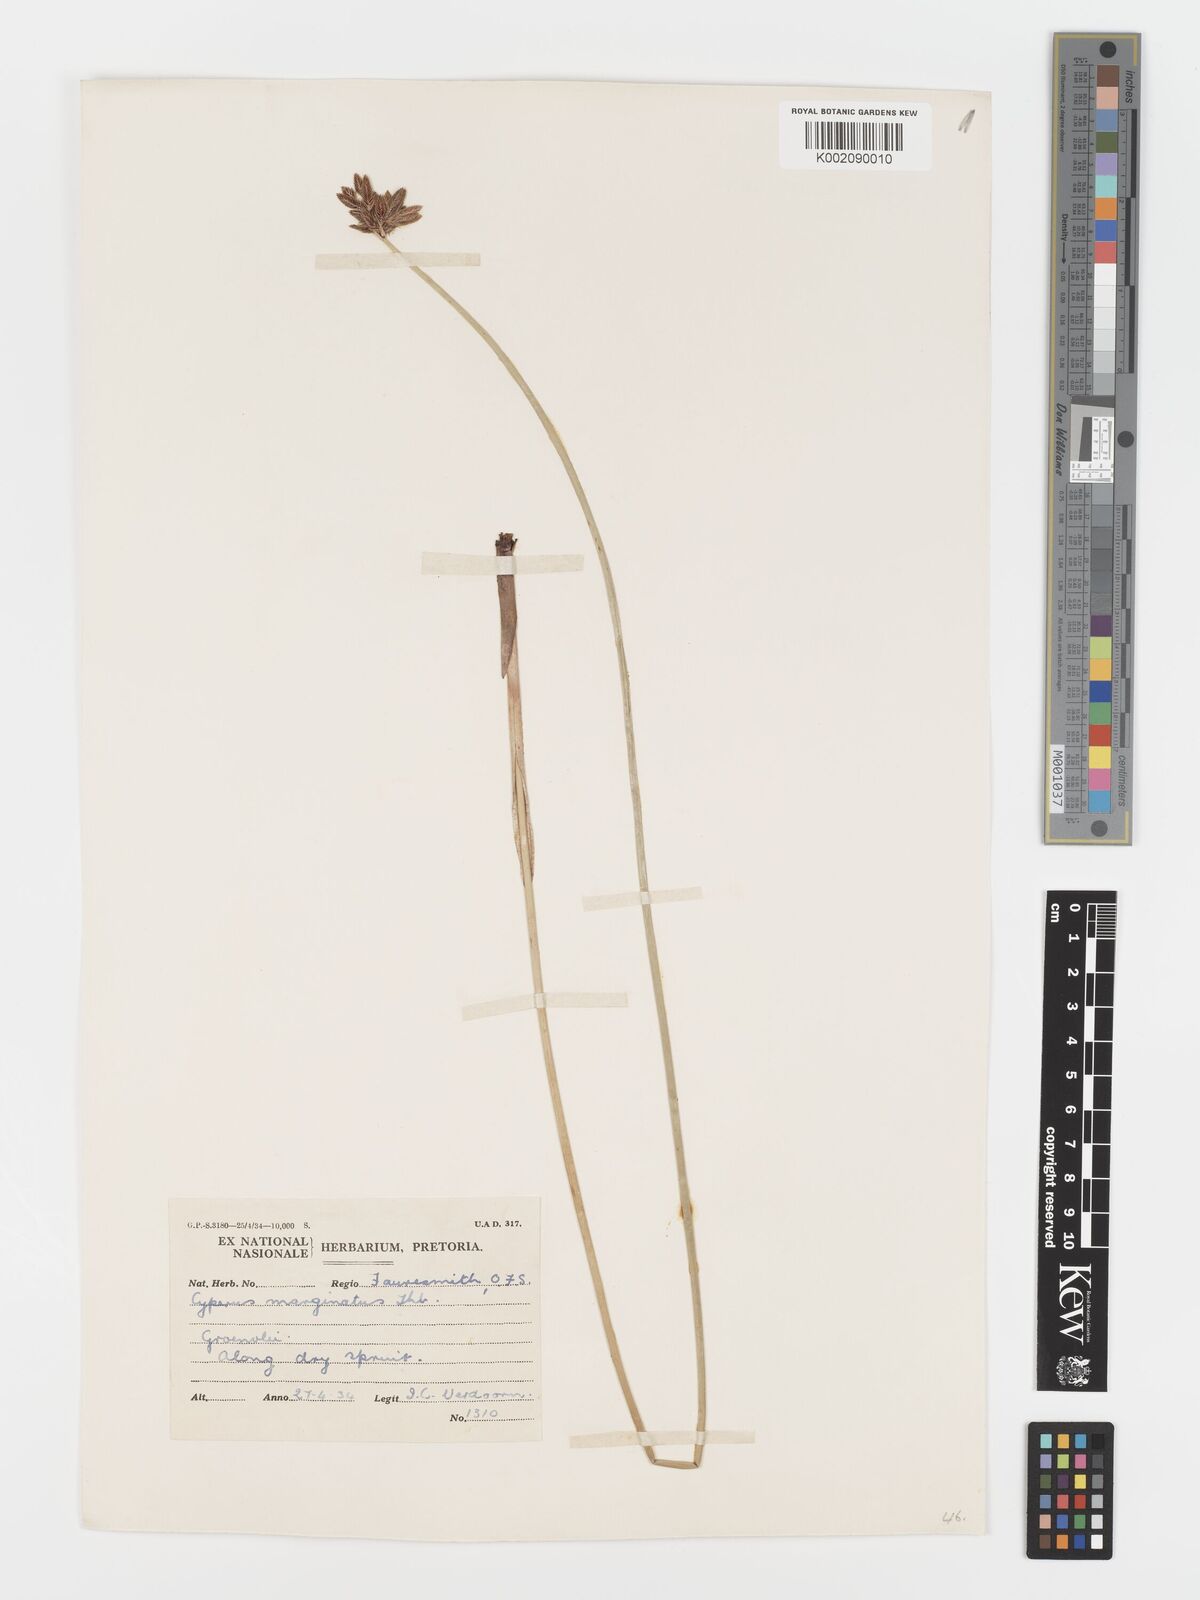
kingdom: Plantae
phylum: Tracheophyta
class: Liliopsida
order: Poales
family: Cyperaceae
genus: Cyperus
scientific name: Cyperus marginatus
